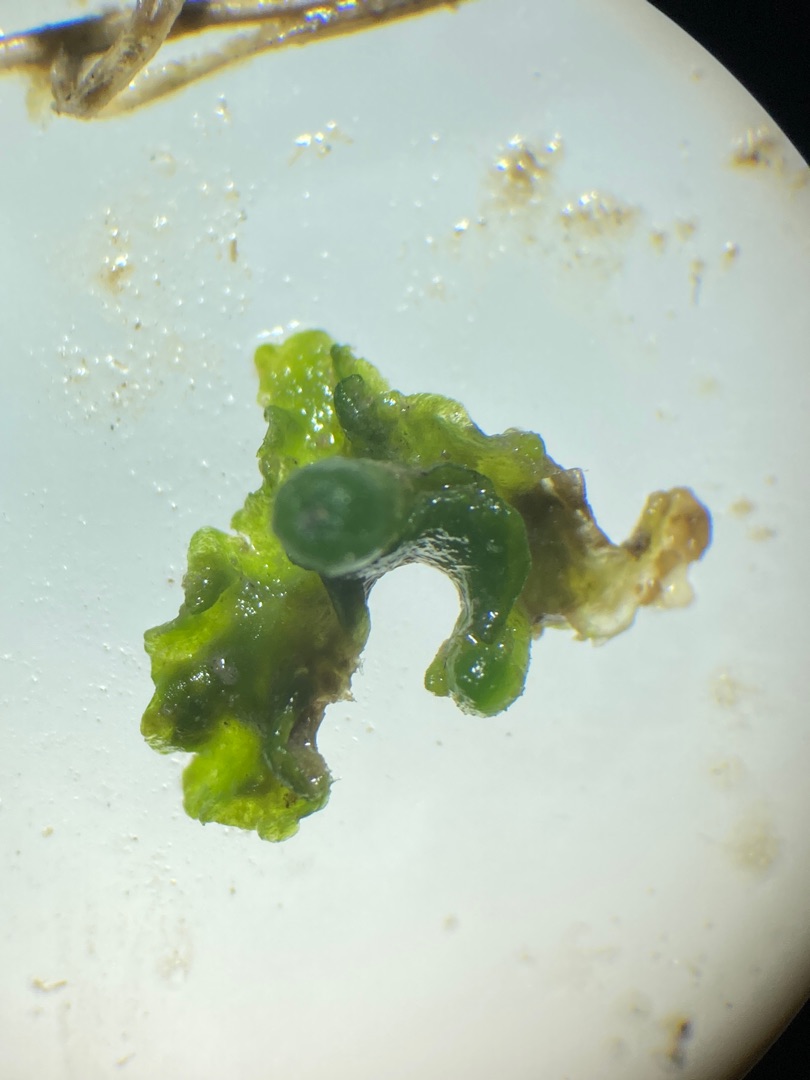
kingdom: Plantae
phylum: Marchantiophyta
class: Jungermanniopsida
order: Metzgeriales
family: Aneuraceae
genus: Aneura
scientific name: Aneura pinguis
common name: Tyk nerveløs
